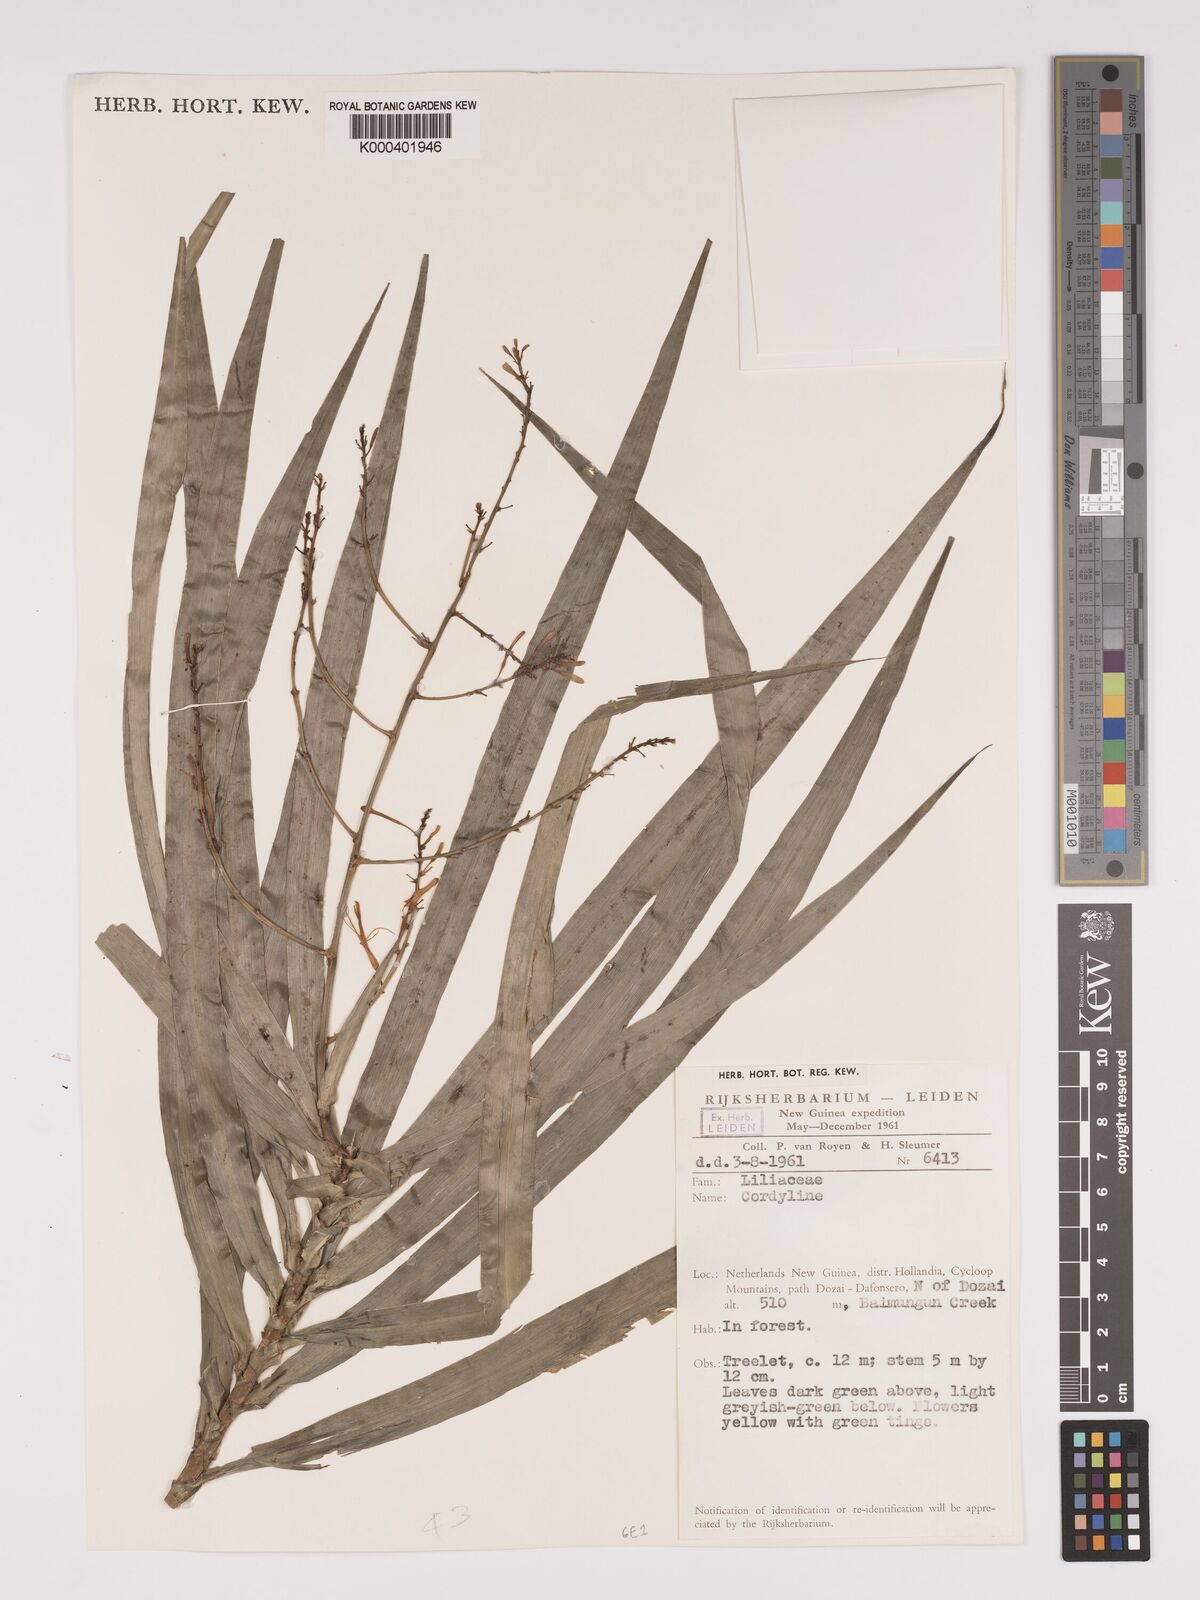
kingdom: Plantae
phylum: Tracheophyta
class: Liliopsida
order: Asparagales
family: Asparagaceae
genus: Dracaena
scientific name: Dracaena angustifolia
